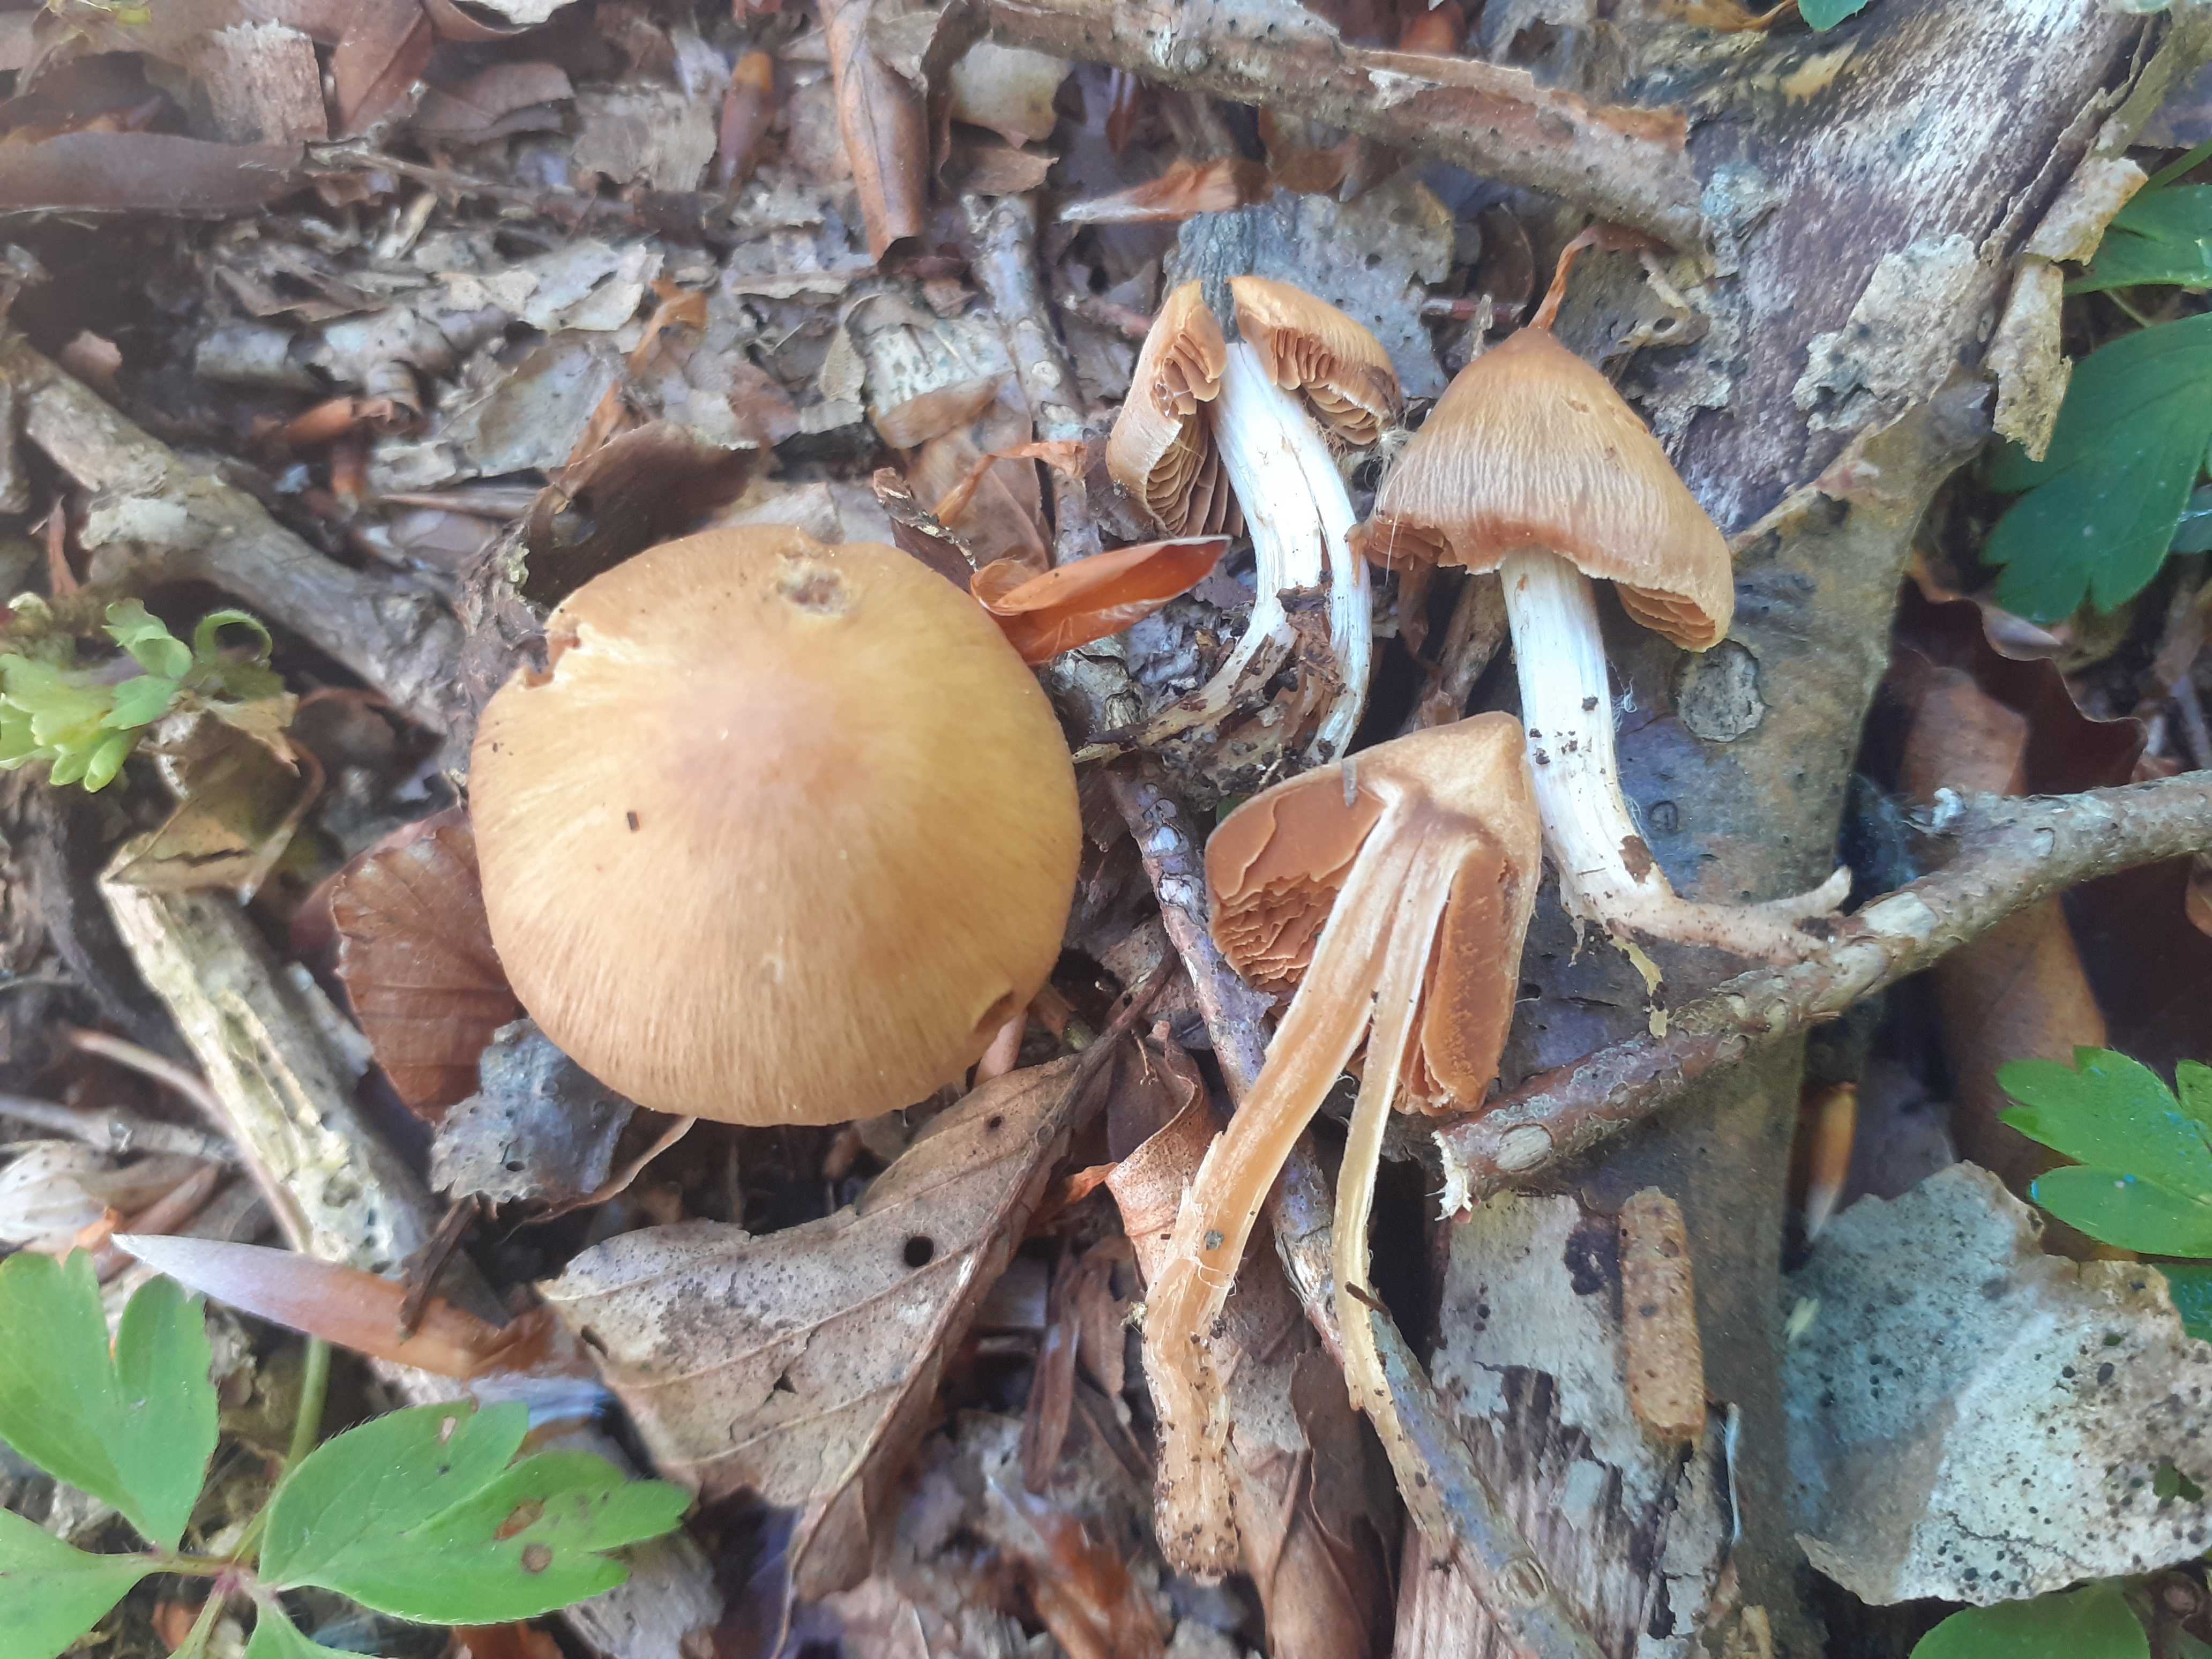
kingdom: Fungi
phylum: Basidiomycota
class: Agaricomycetes
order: Agaricales
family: Cortinariaceae
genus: Cortinarius
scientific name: Cortinarius obtusus
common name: Blunt webcap
